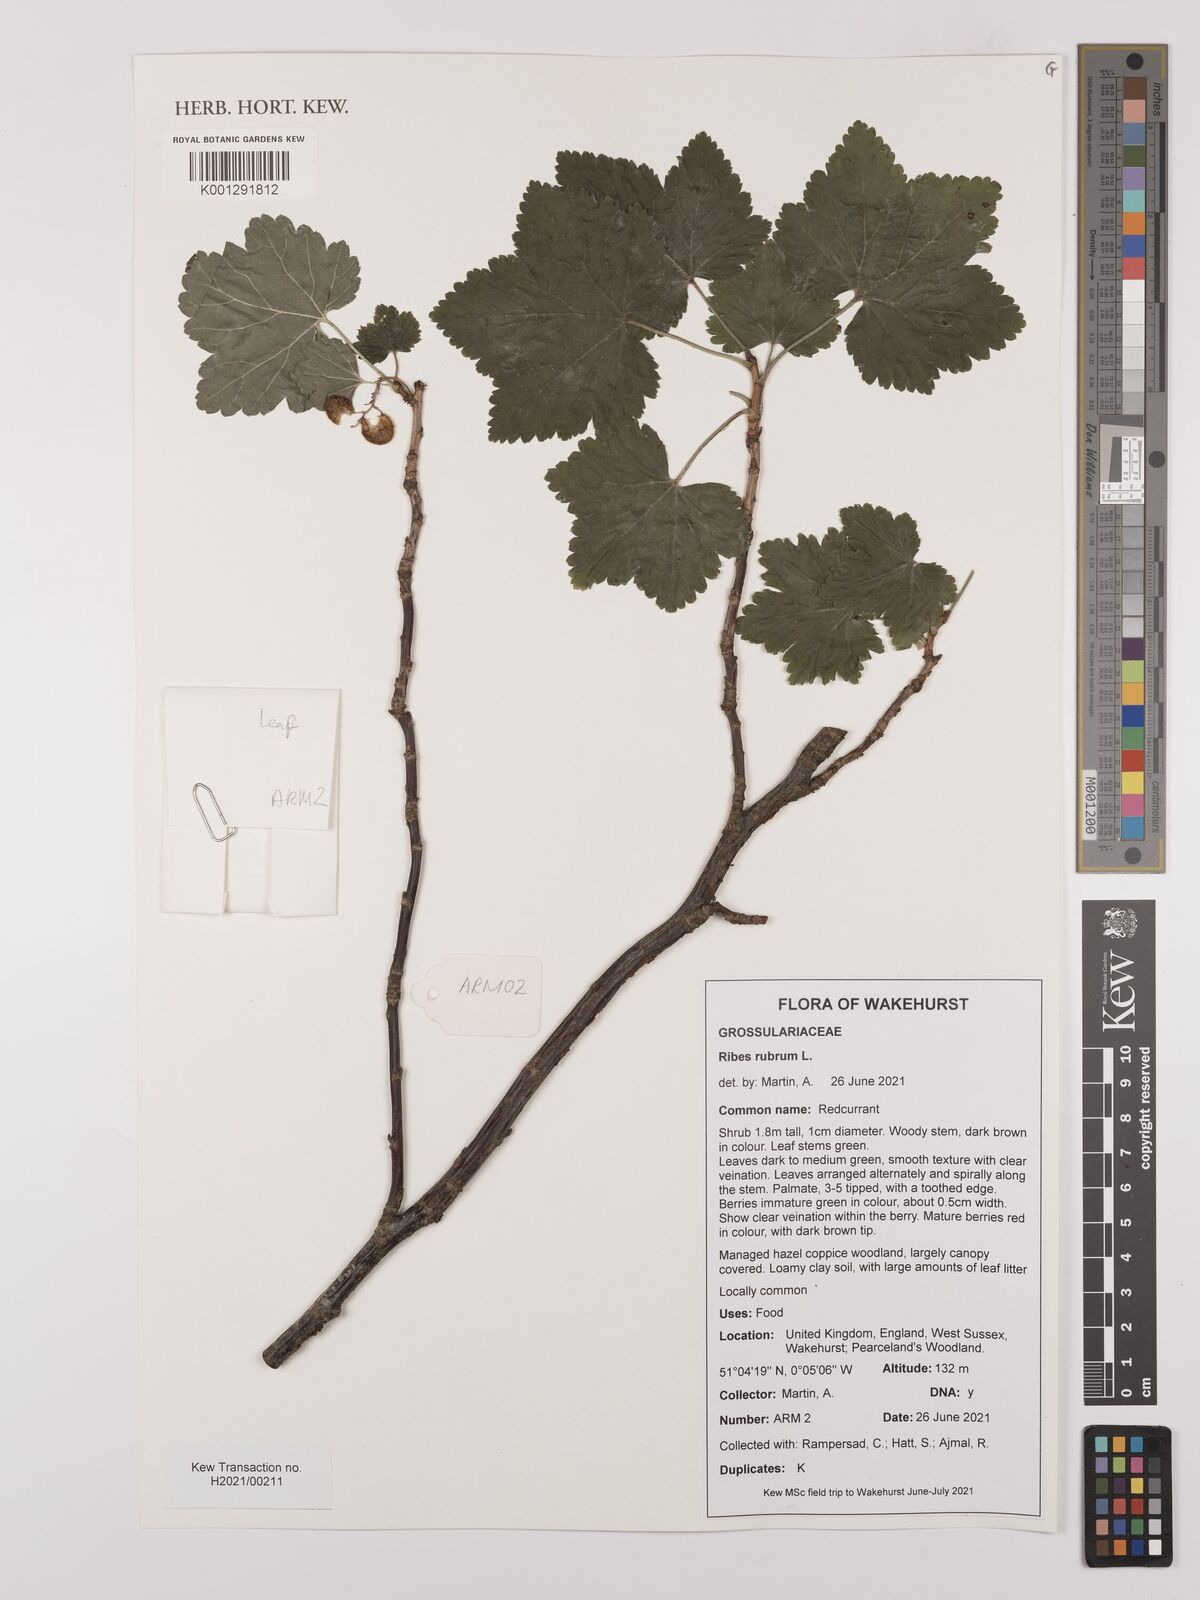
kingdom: Plantae
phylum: Tracheophyta
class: Magnoliopsida
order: Saxifragales
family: Grossulariaceae
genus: Ribes
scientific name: Ribes rubrum
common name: Red currant
